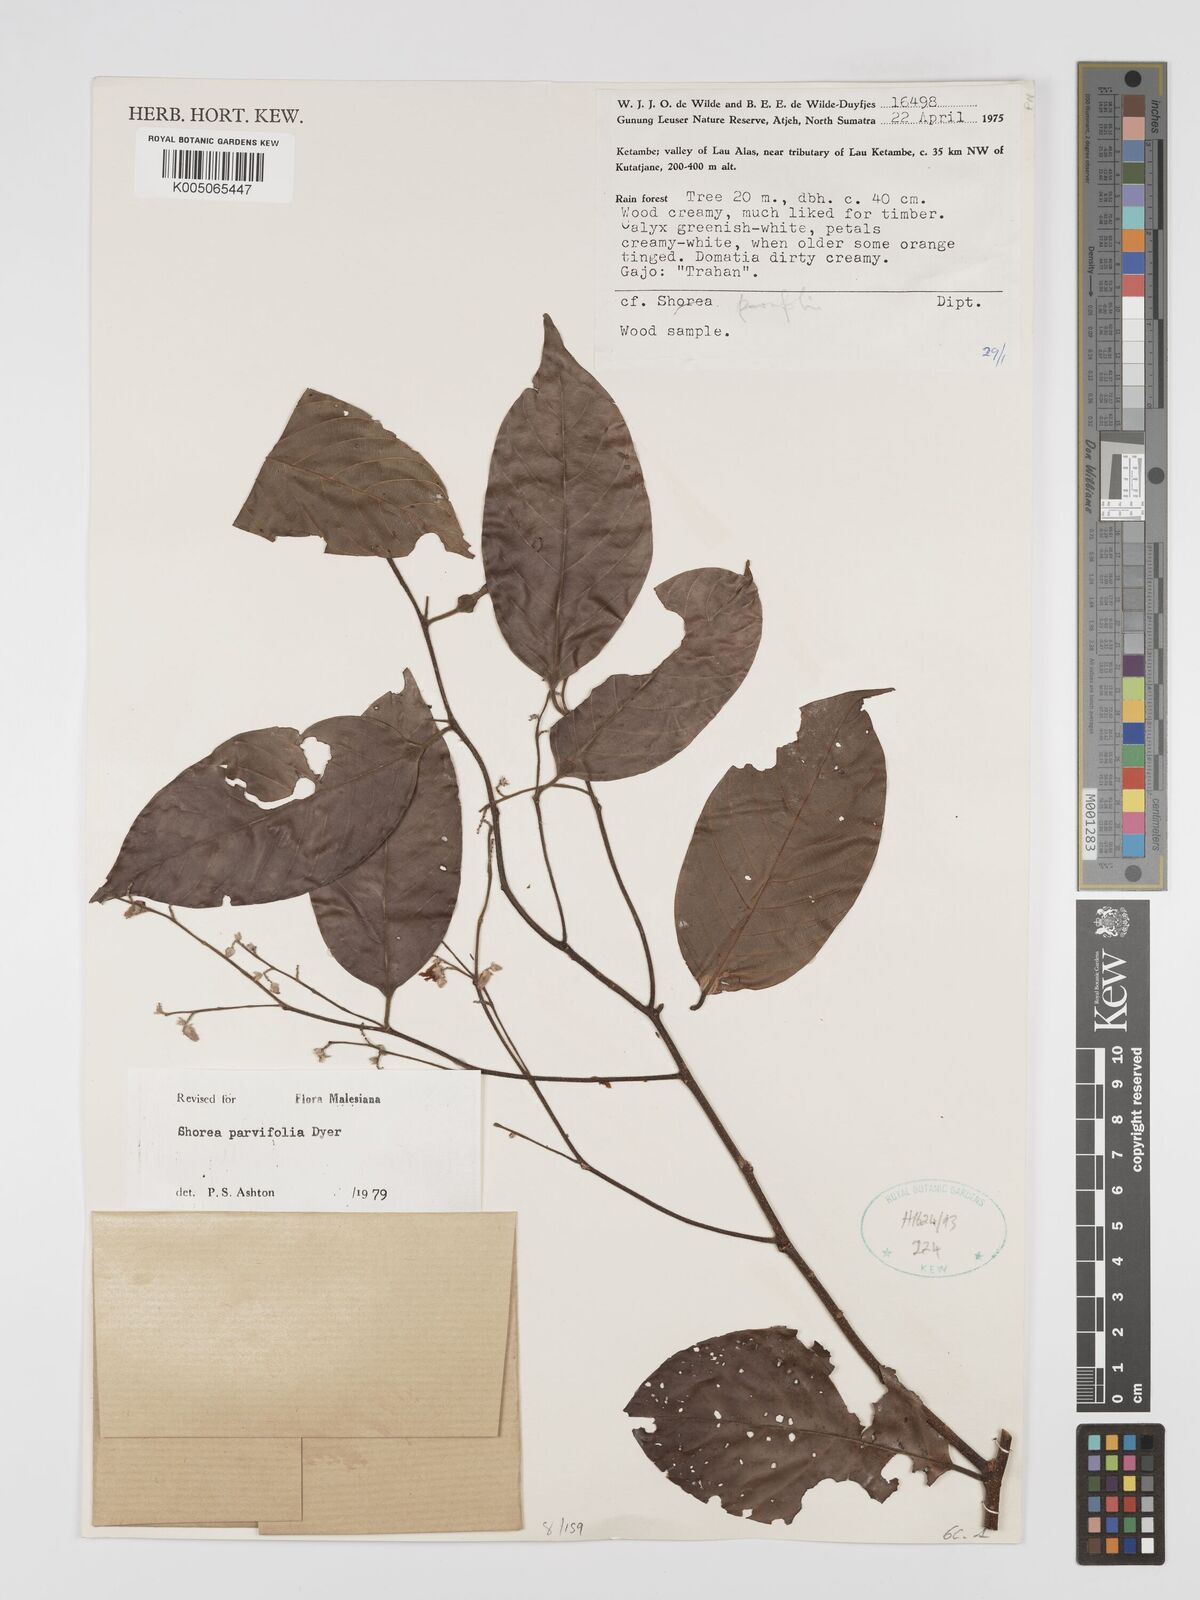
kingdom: Plantae
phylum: Tracheophyta
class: Magnoliopsida
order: Malvales
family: Dipterocarpaceae
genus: Shorea
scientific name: Shorea parvifolia
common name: Light red meranti
